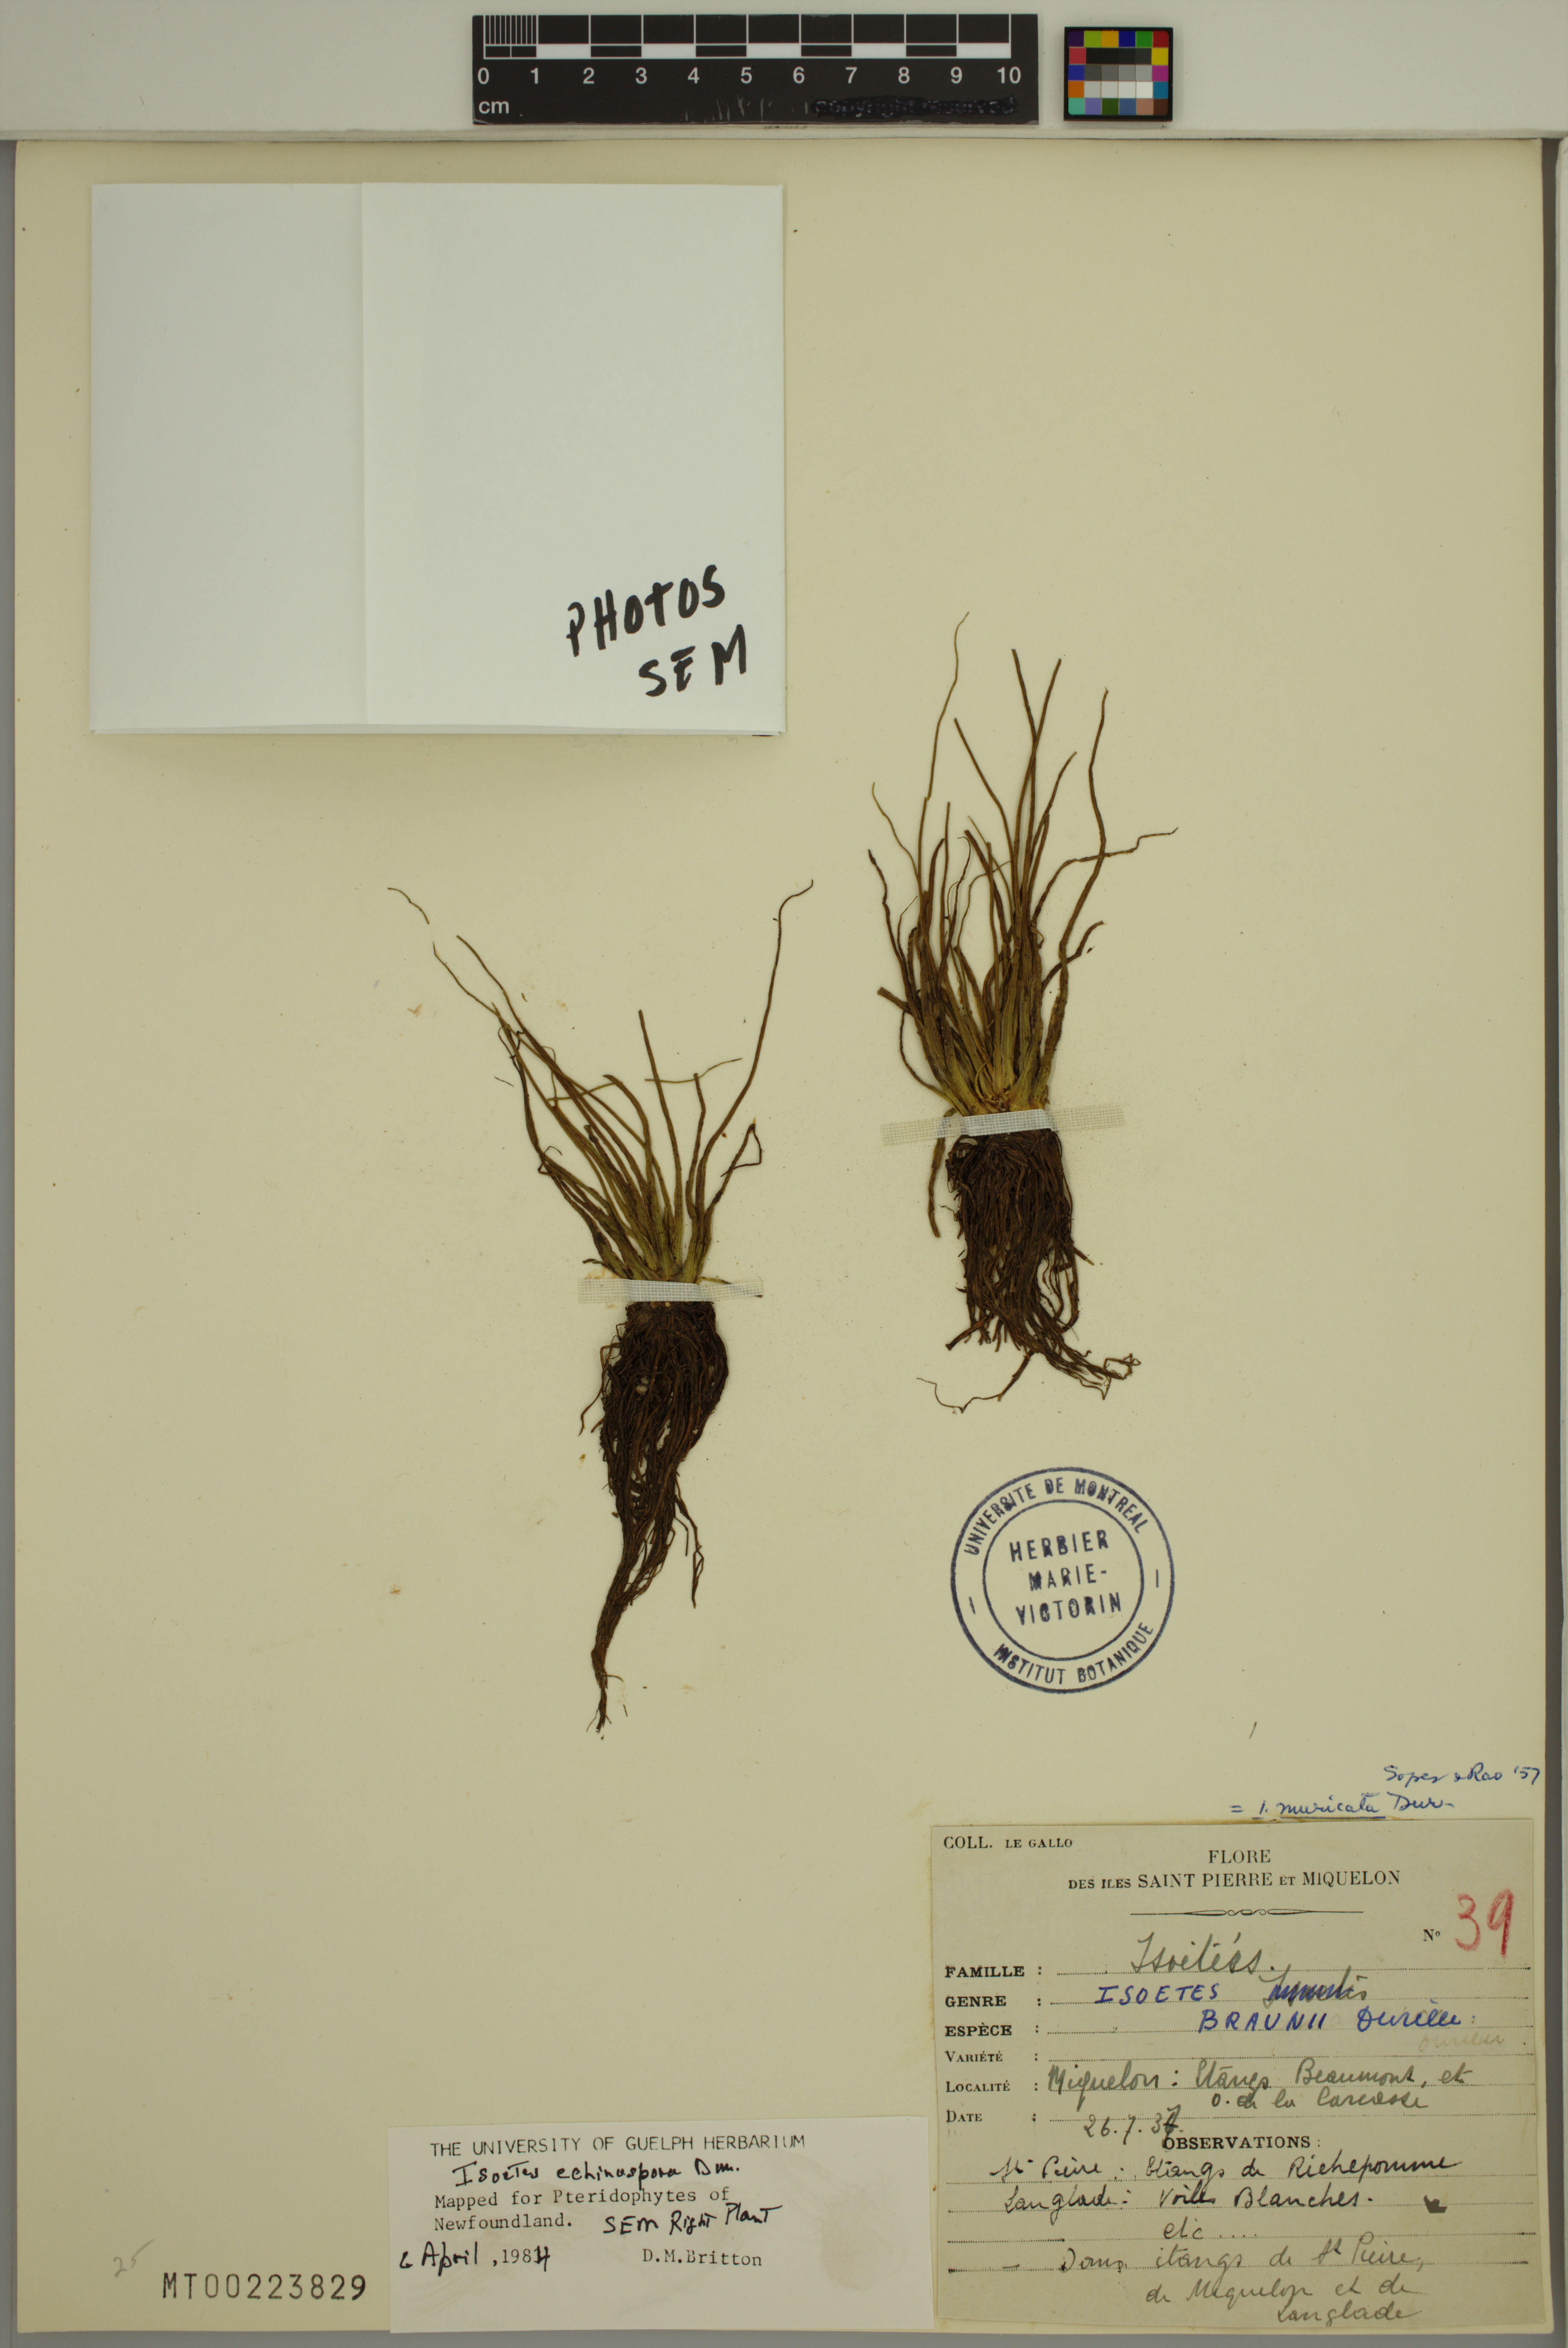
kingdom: Plantae
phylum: Tracheophyta
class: Lycopodiopsida
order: Isoetales
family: Isoetaceae
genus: Isoetes
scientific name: Isoetes echinospora
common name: Spring quillwort
